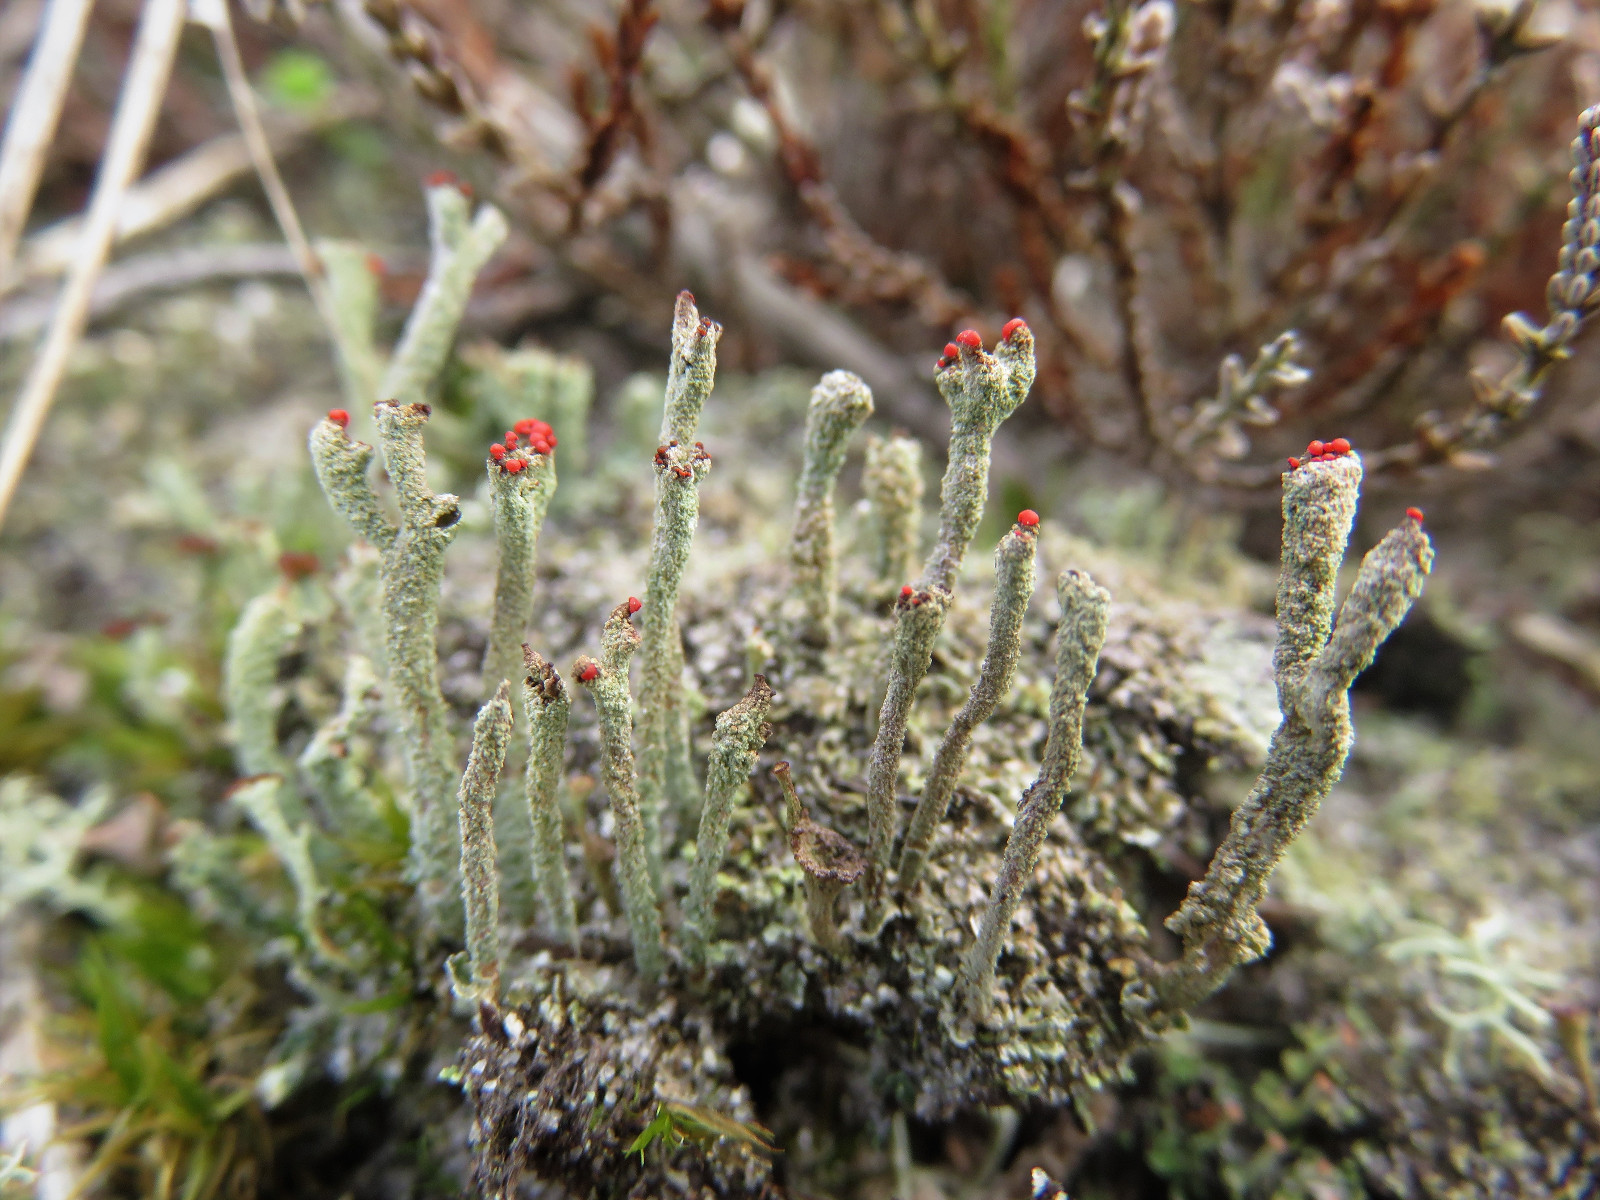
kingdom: Fungi
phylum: Ascomycota
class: Lecanoromycetes
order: Lecanorales
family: Cladoniaceae
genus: Cladonia
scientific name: Cladonia floerkeana
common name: lakrød bægerlav
